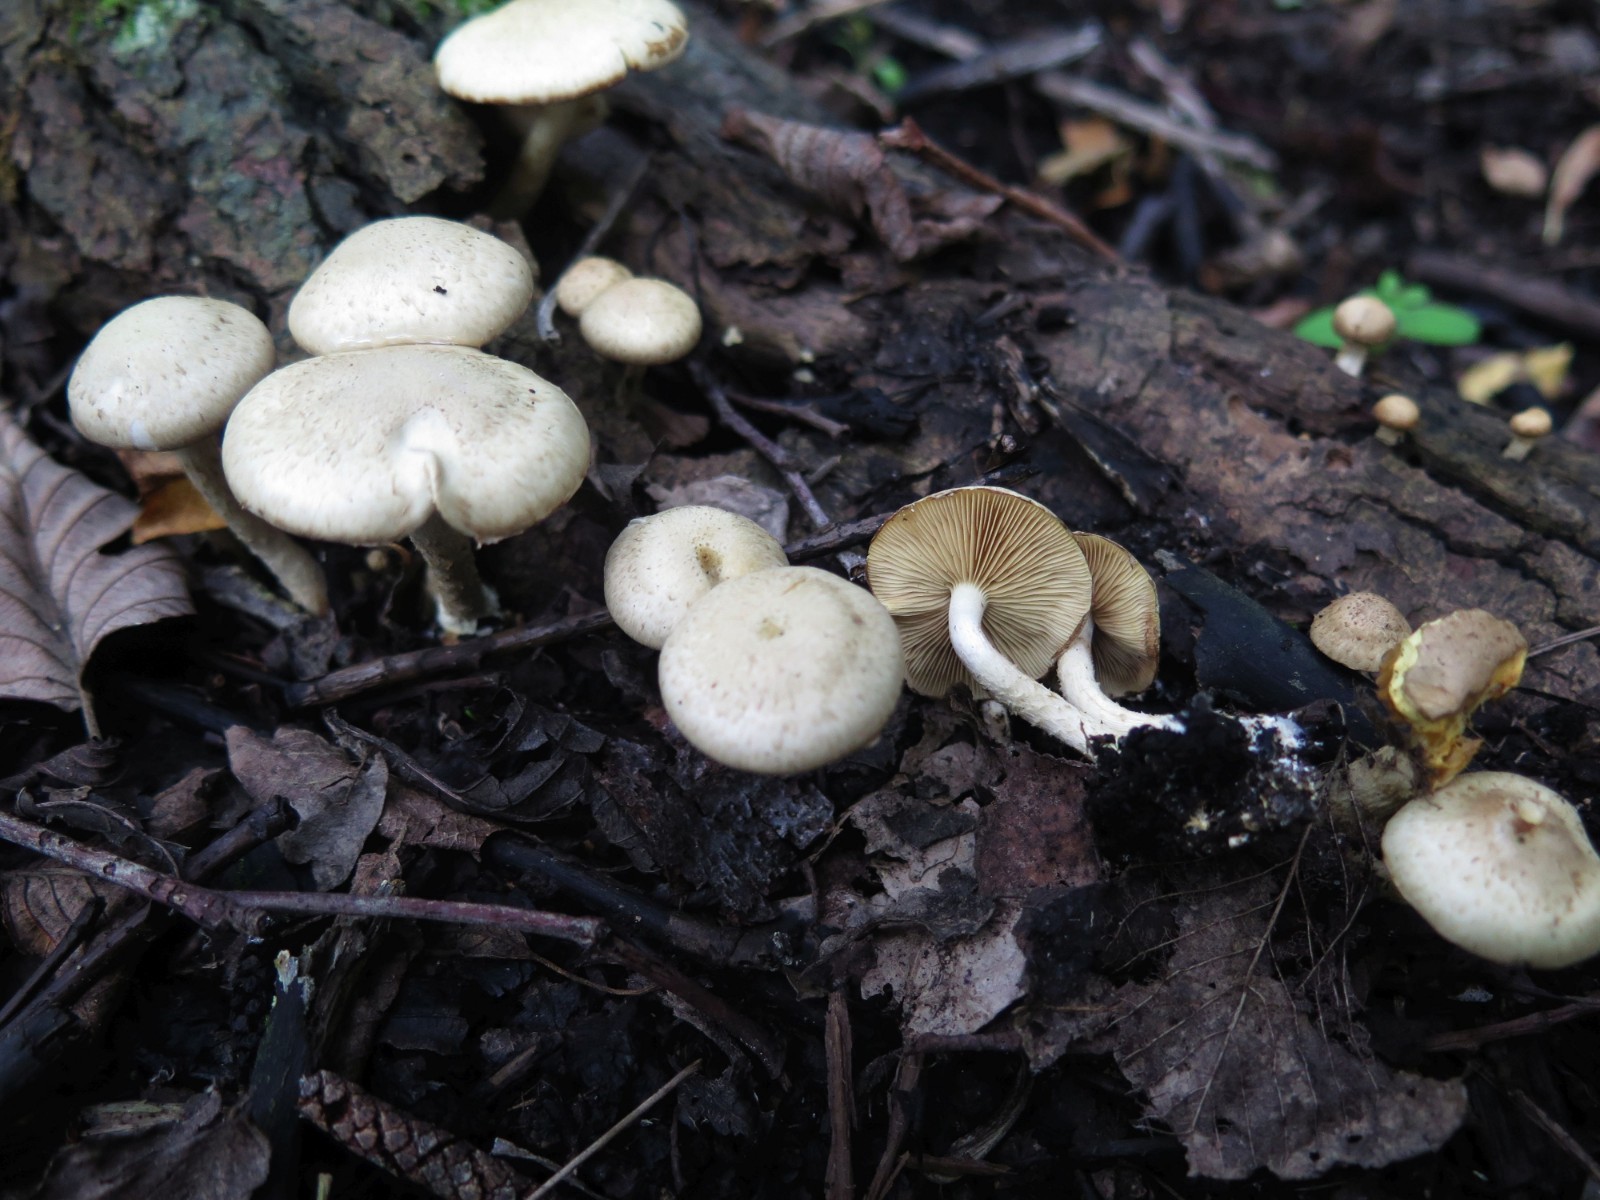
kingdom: Fungi
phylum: Basidiomycota
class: Agaricomycetes
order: Agaricales
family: Strophariaceae
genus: Pholiota
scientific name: Pholiota gummosa
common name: grøngul skælhat
